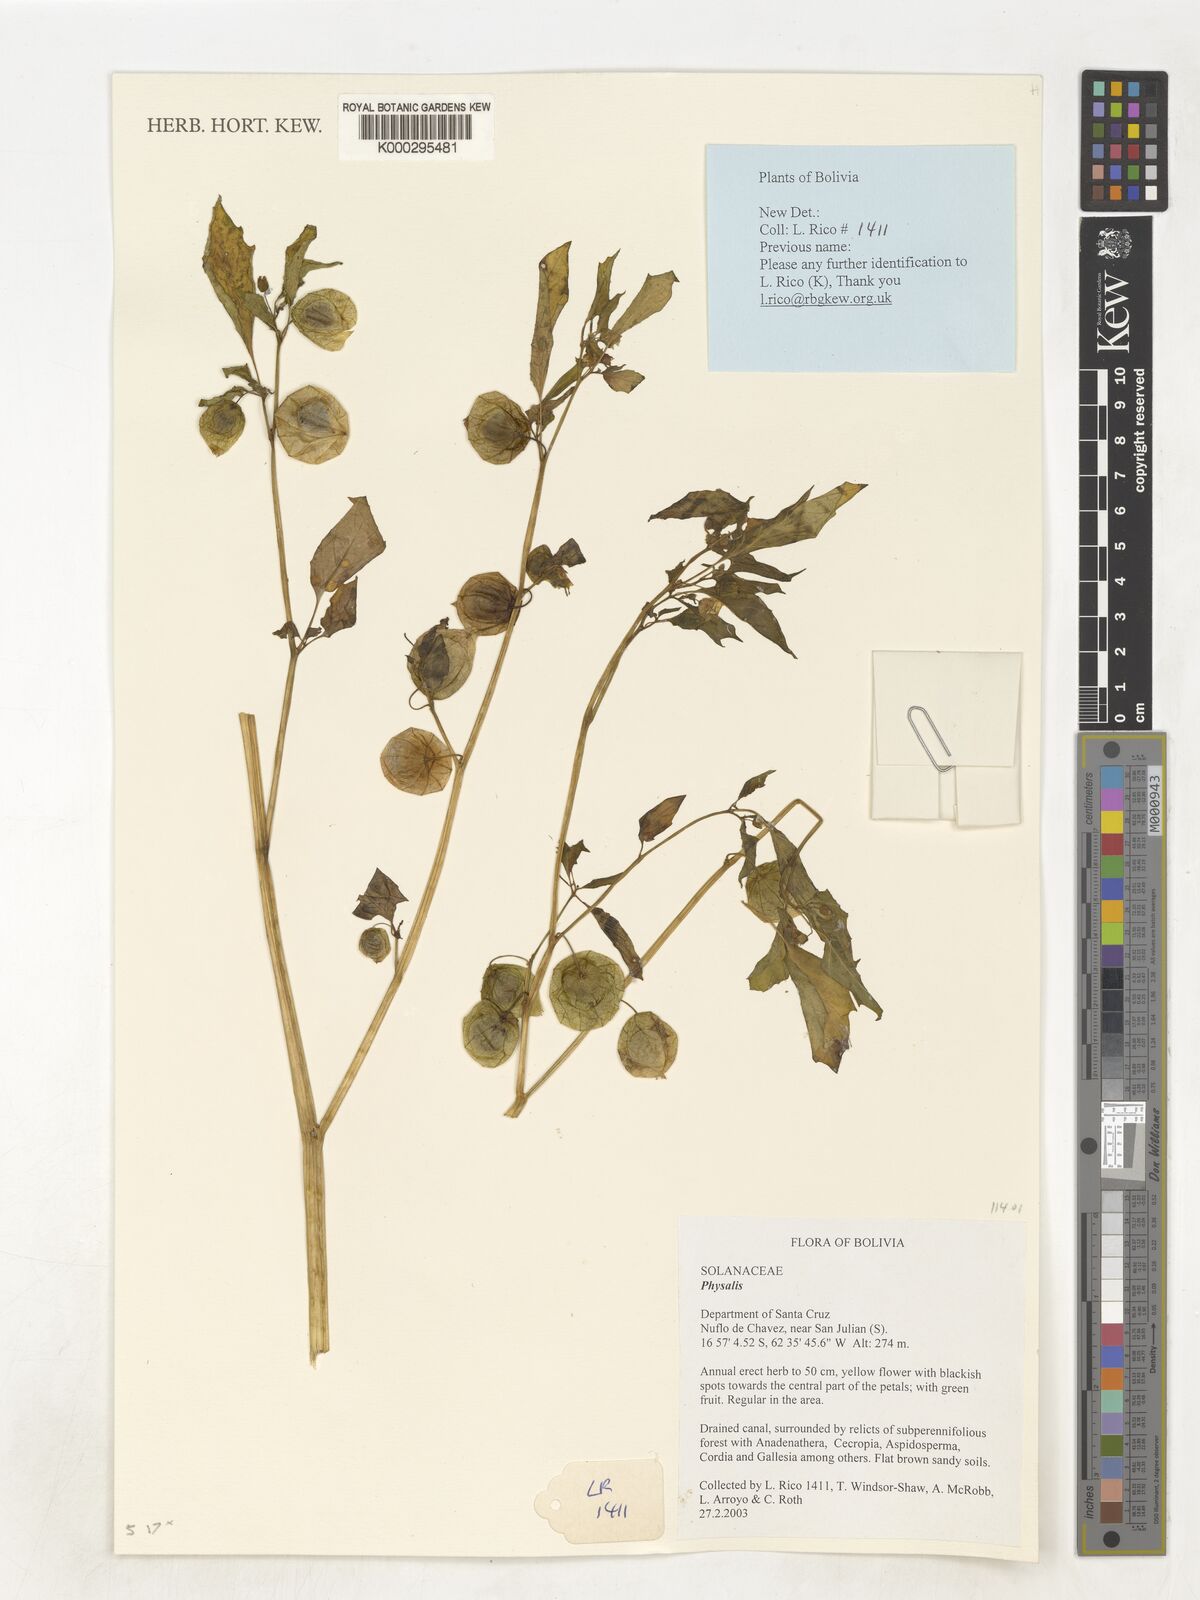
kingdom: Plantae
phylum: Tracheophyta
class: Magnoliopsida
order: Solanales
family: Solanaceae
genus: Physalis
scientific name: Physalis
